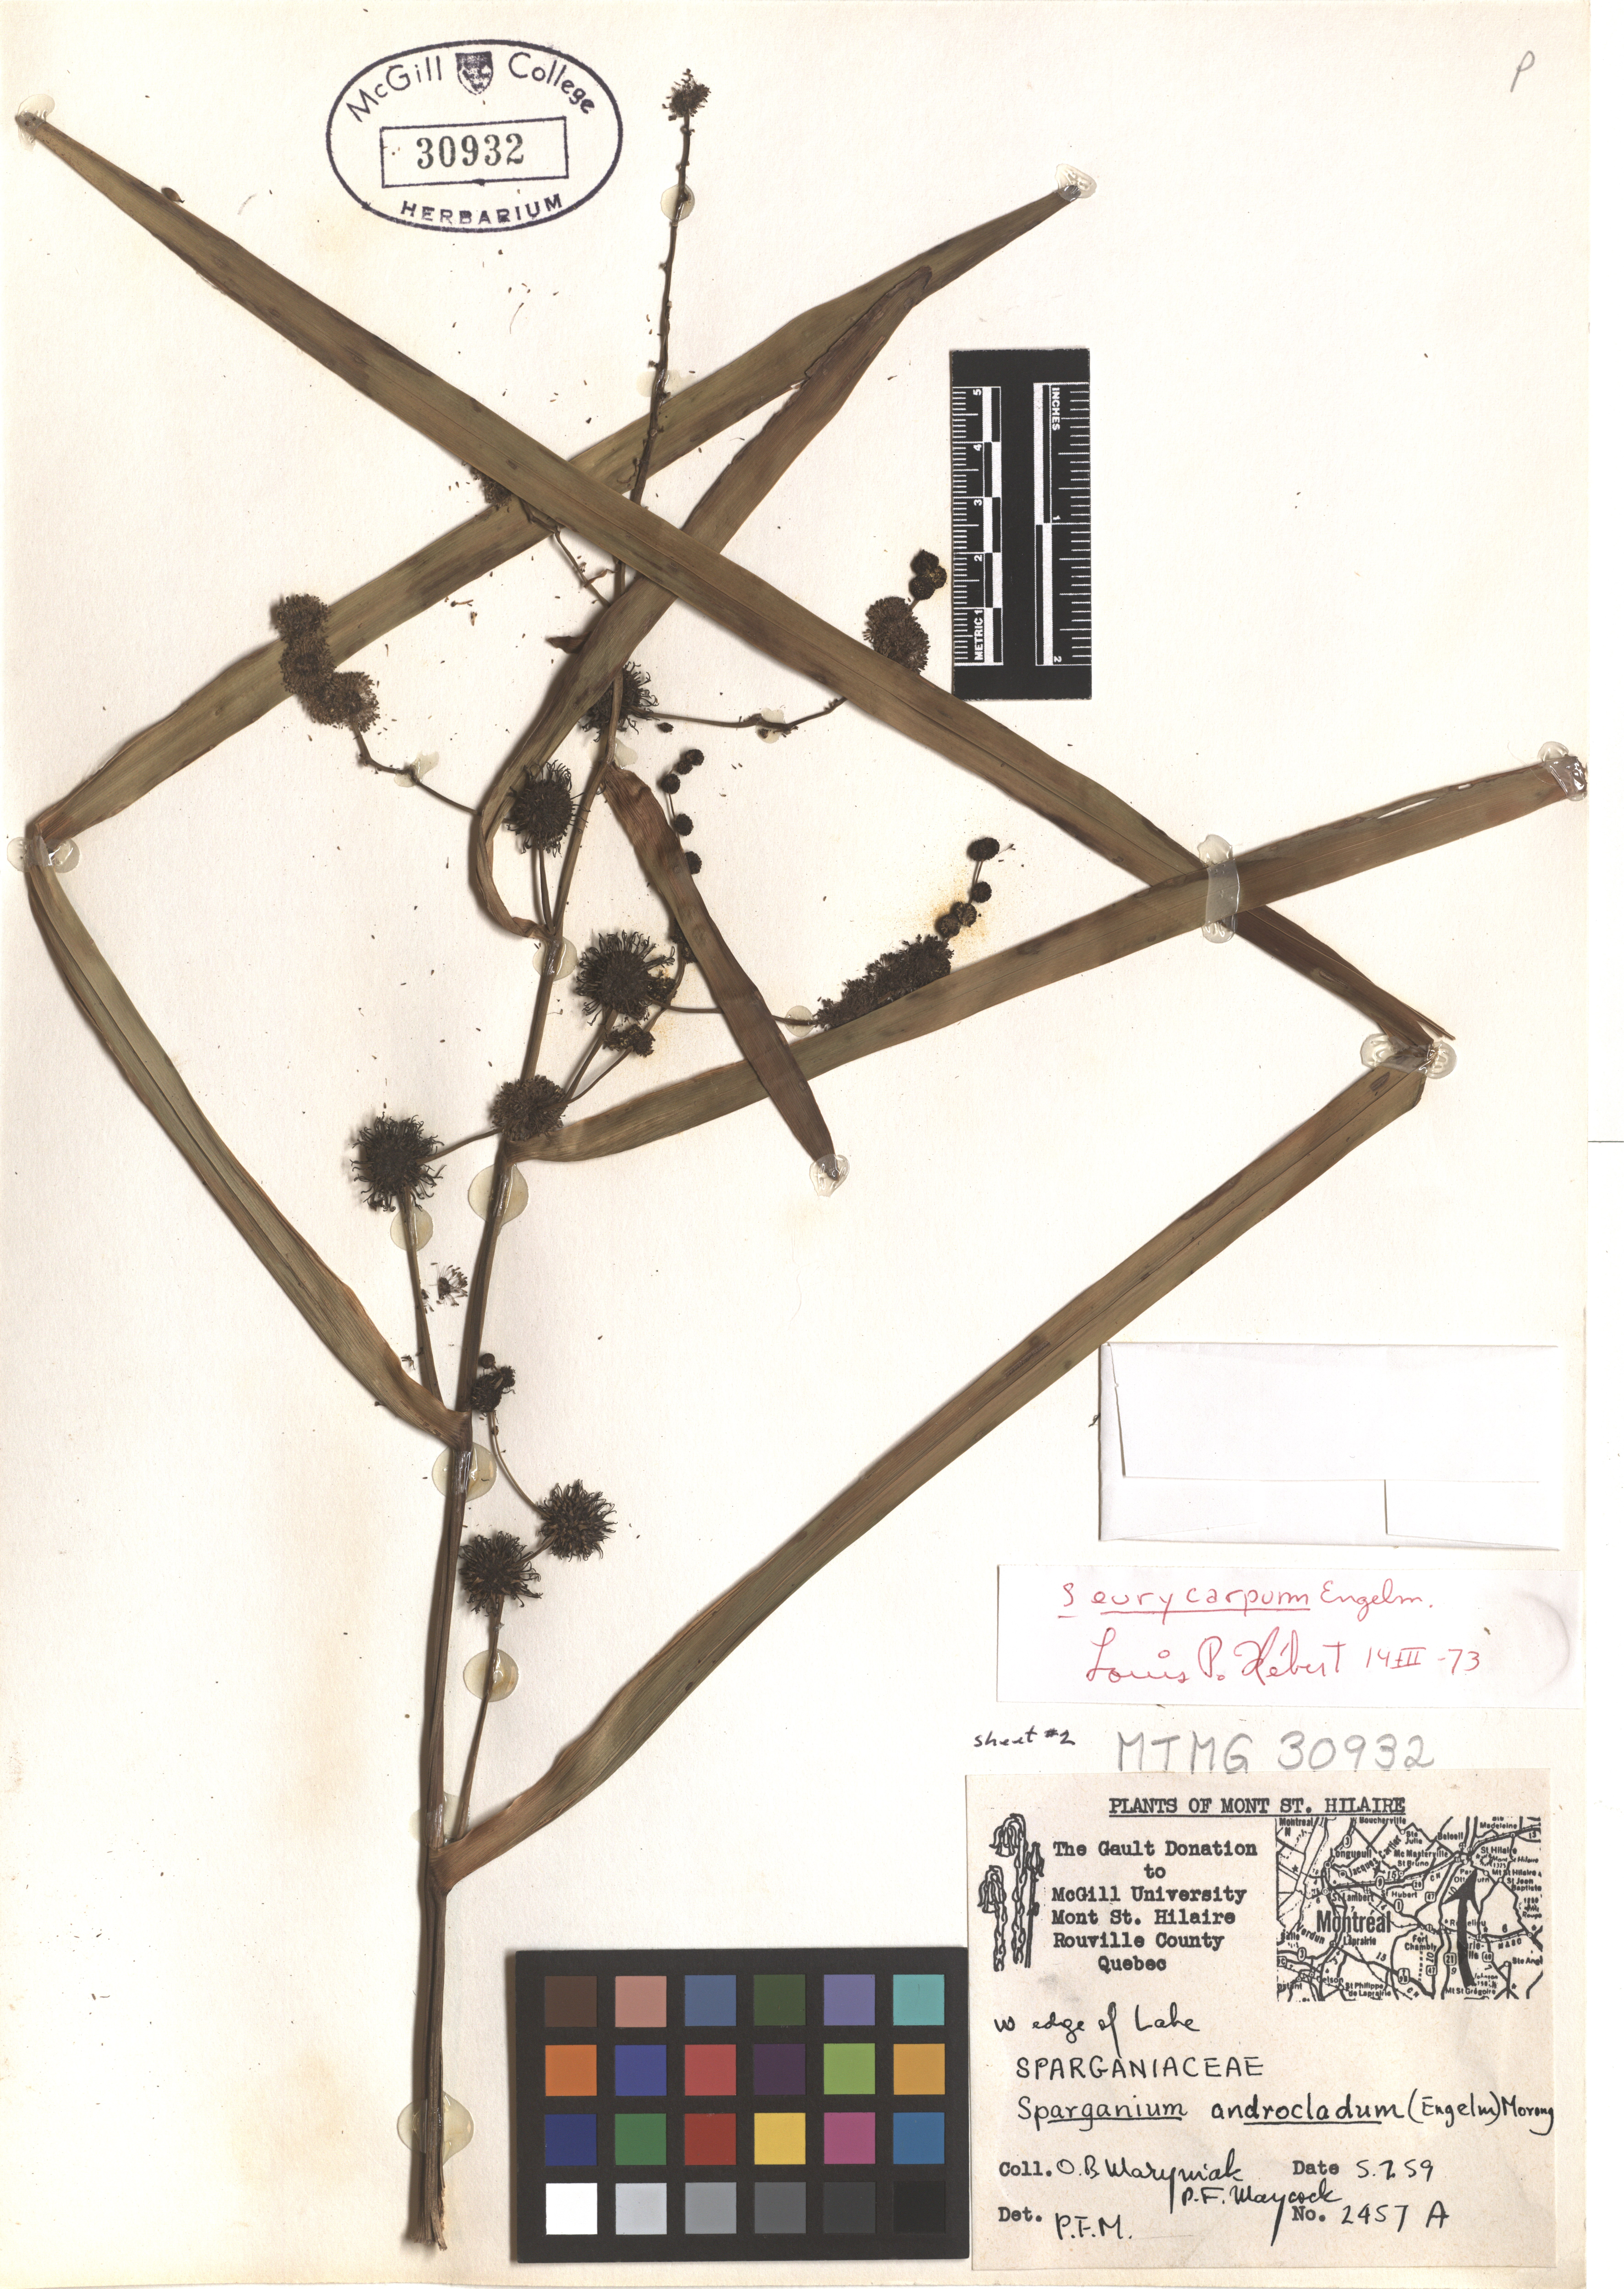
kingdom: Plantae
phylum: Tracheophyta
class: Liliopsida
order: Poales
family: Typhaceae
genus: Sparganium
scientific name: Sparganium eurycarpum
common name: Broad-fruited burreed
